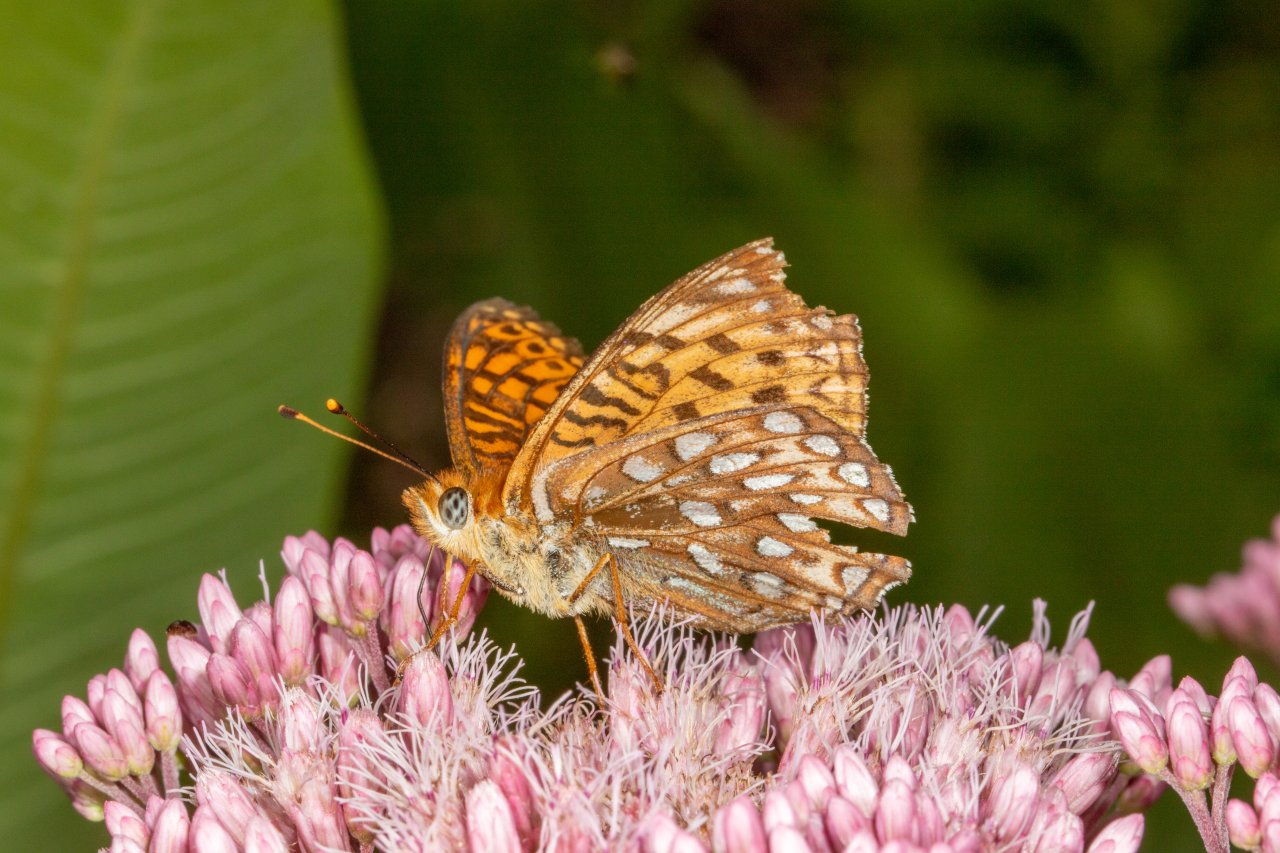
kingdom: Animalia
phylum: Arthropoda
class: Insecta
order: Lepidoptera
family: Nymphalidae
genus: Speyeria
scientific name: Speyeria atlantis
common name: Atlantis Fritillary
